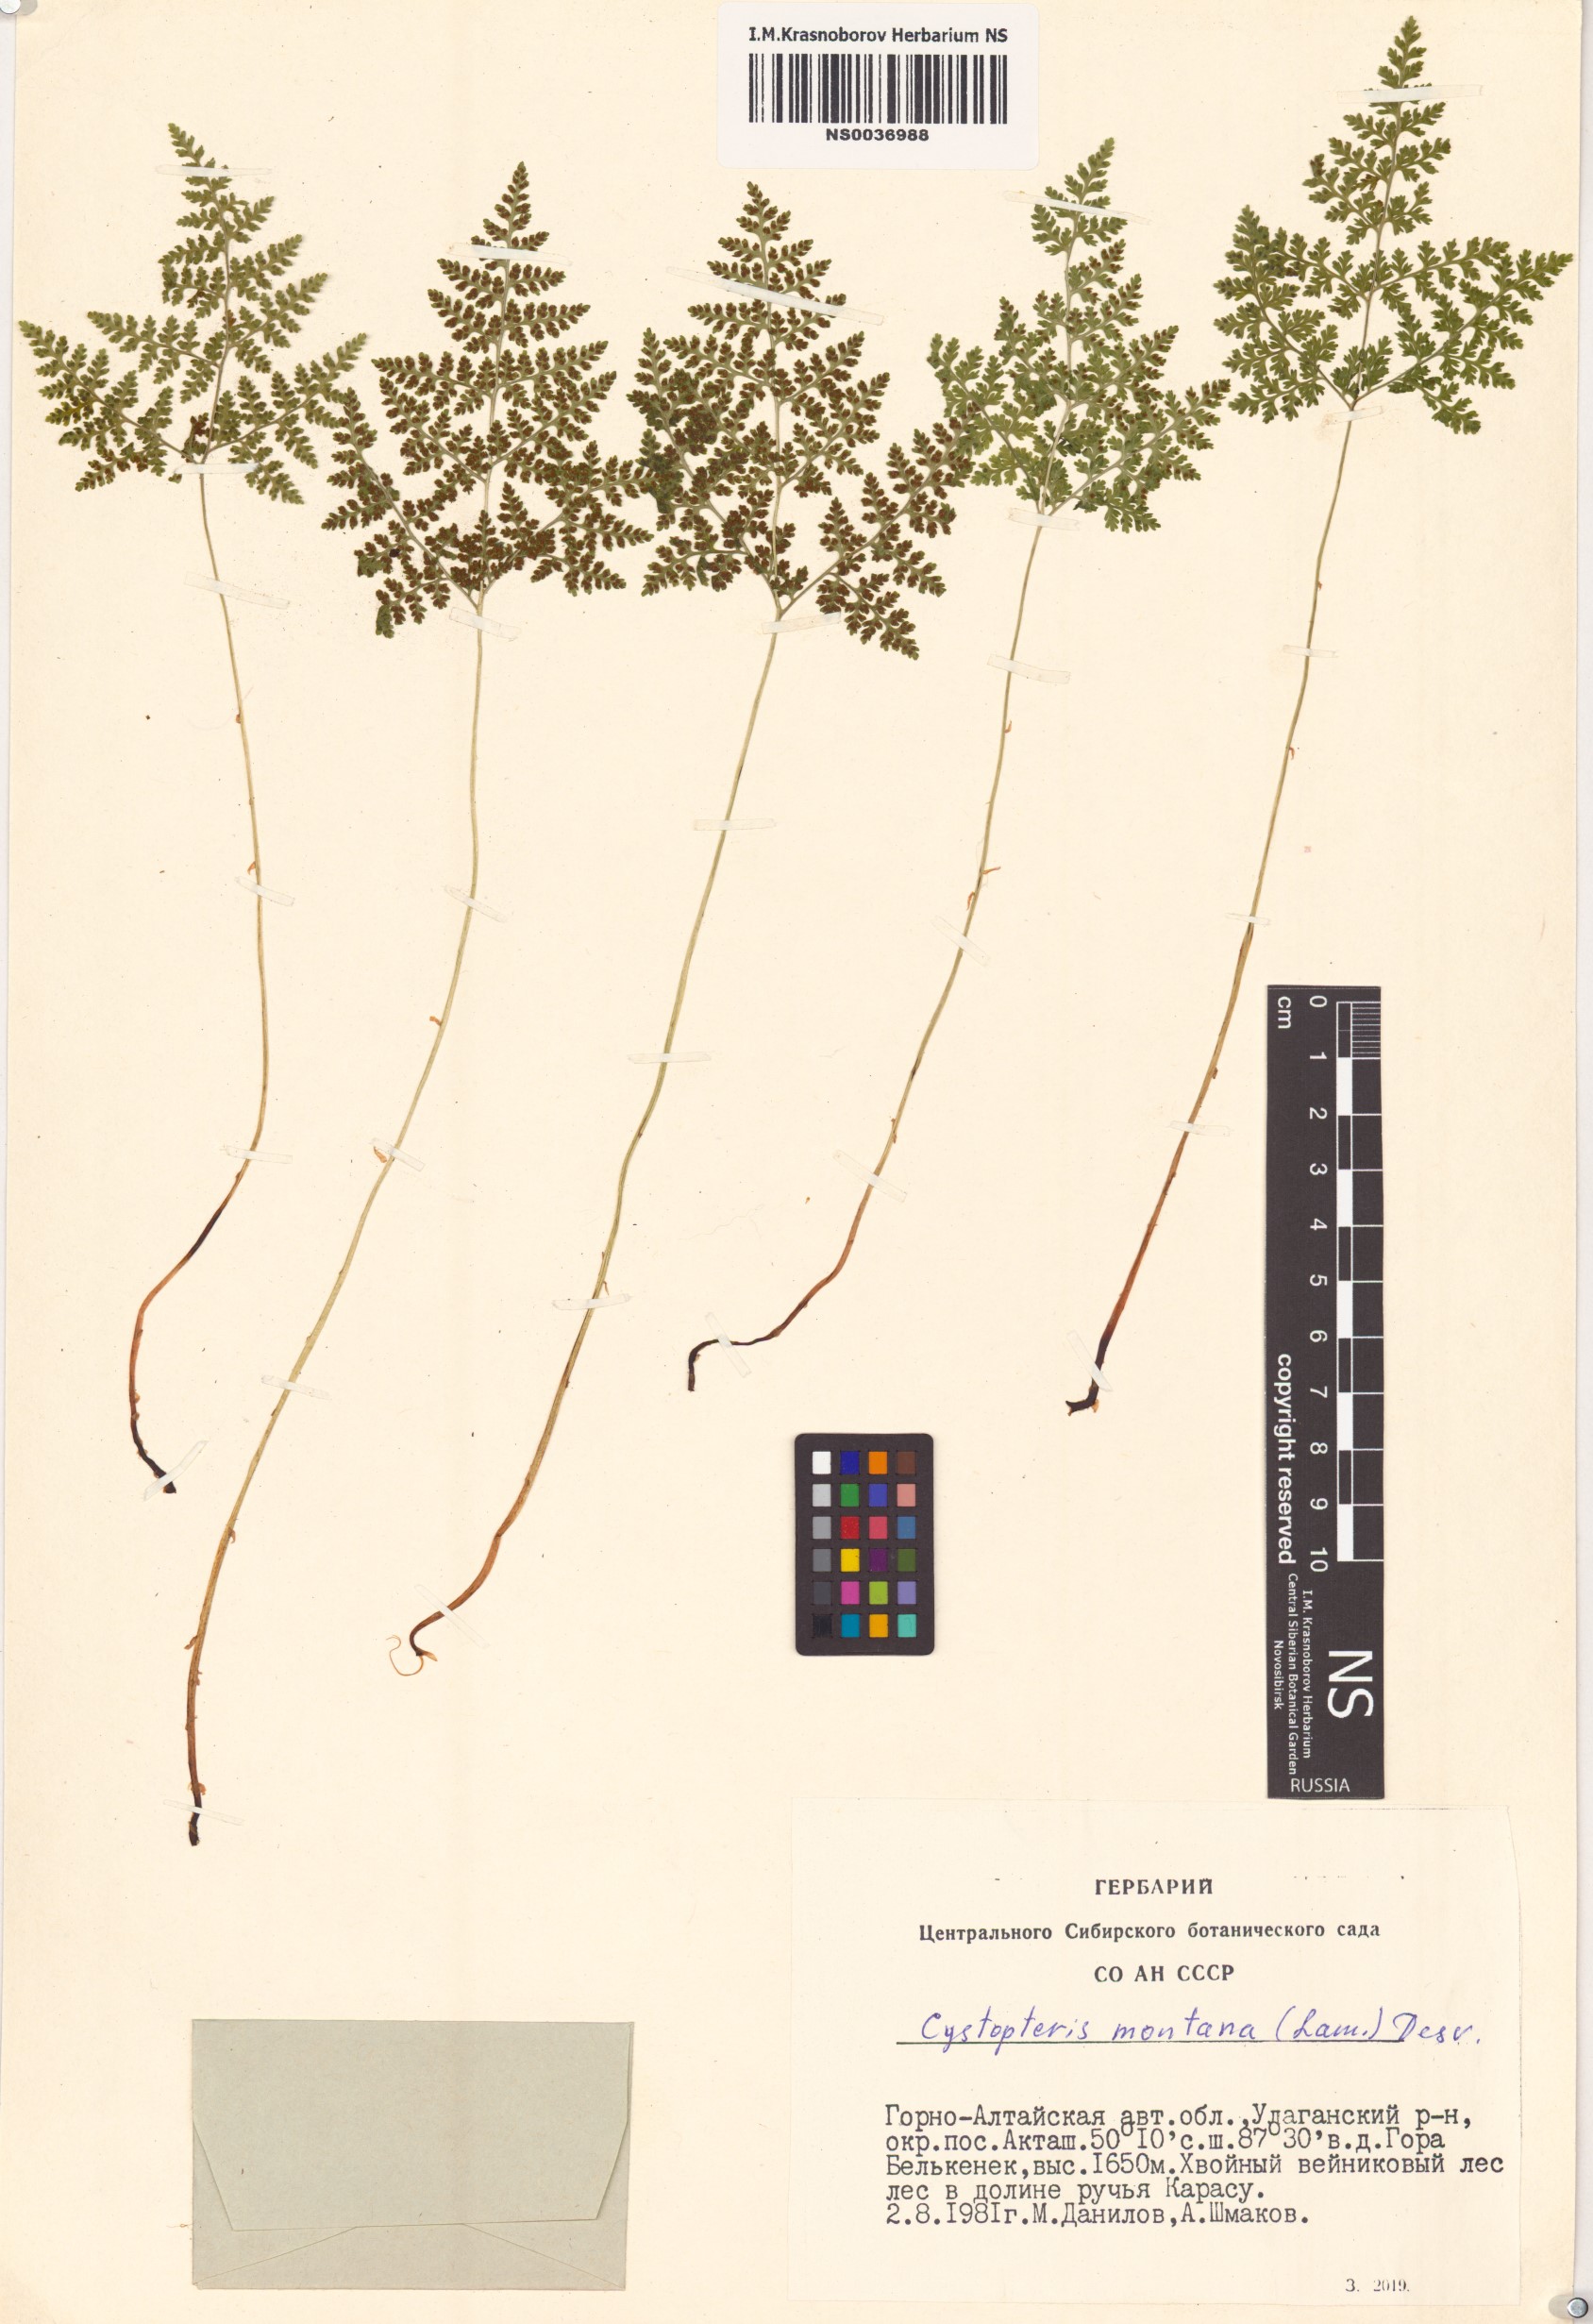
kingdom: Plantae
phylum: Tracheophyta
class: Polypodiopsida
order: Polypodiales
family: Cystopteridaceae
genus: Cystopteris
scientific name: Cystopteris montana
